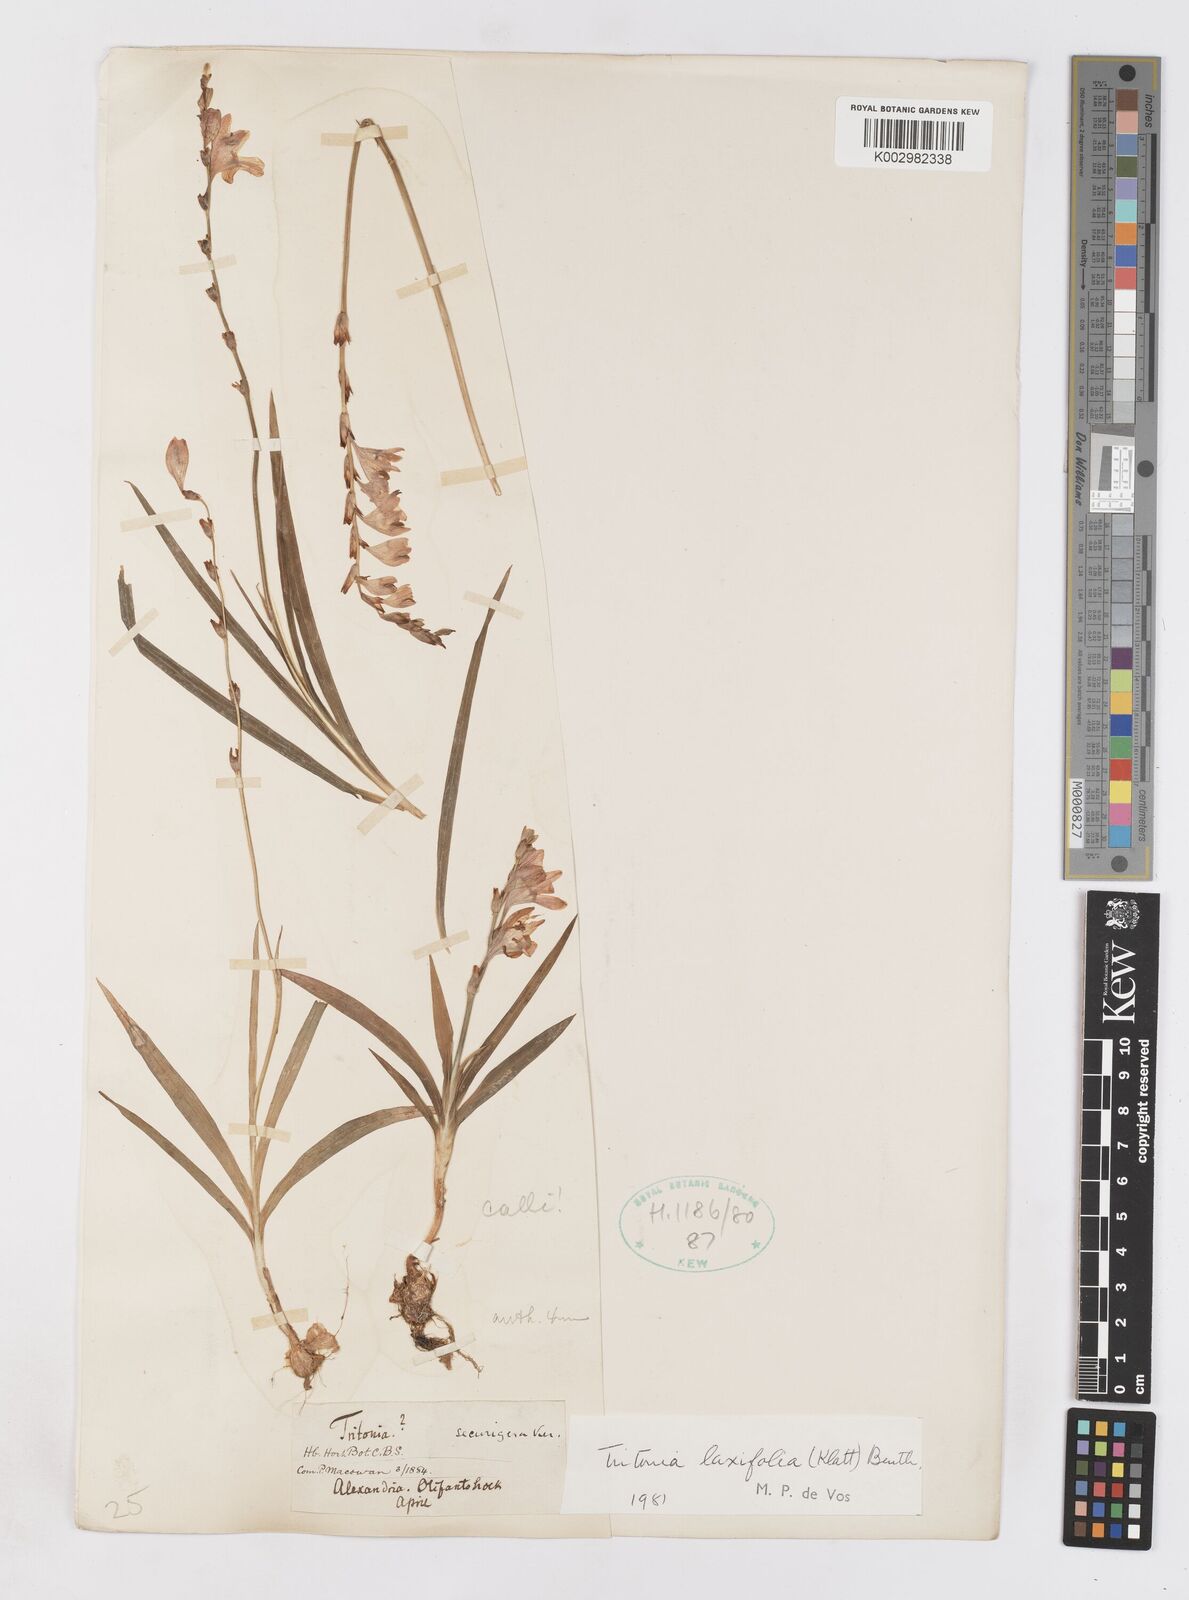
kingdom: Plantae
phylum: Tracheophyta
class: Liliopsida
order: Asparagales
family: Iridaceae
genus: Tritonia
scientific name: Tritonia laxifolia
